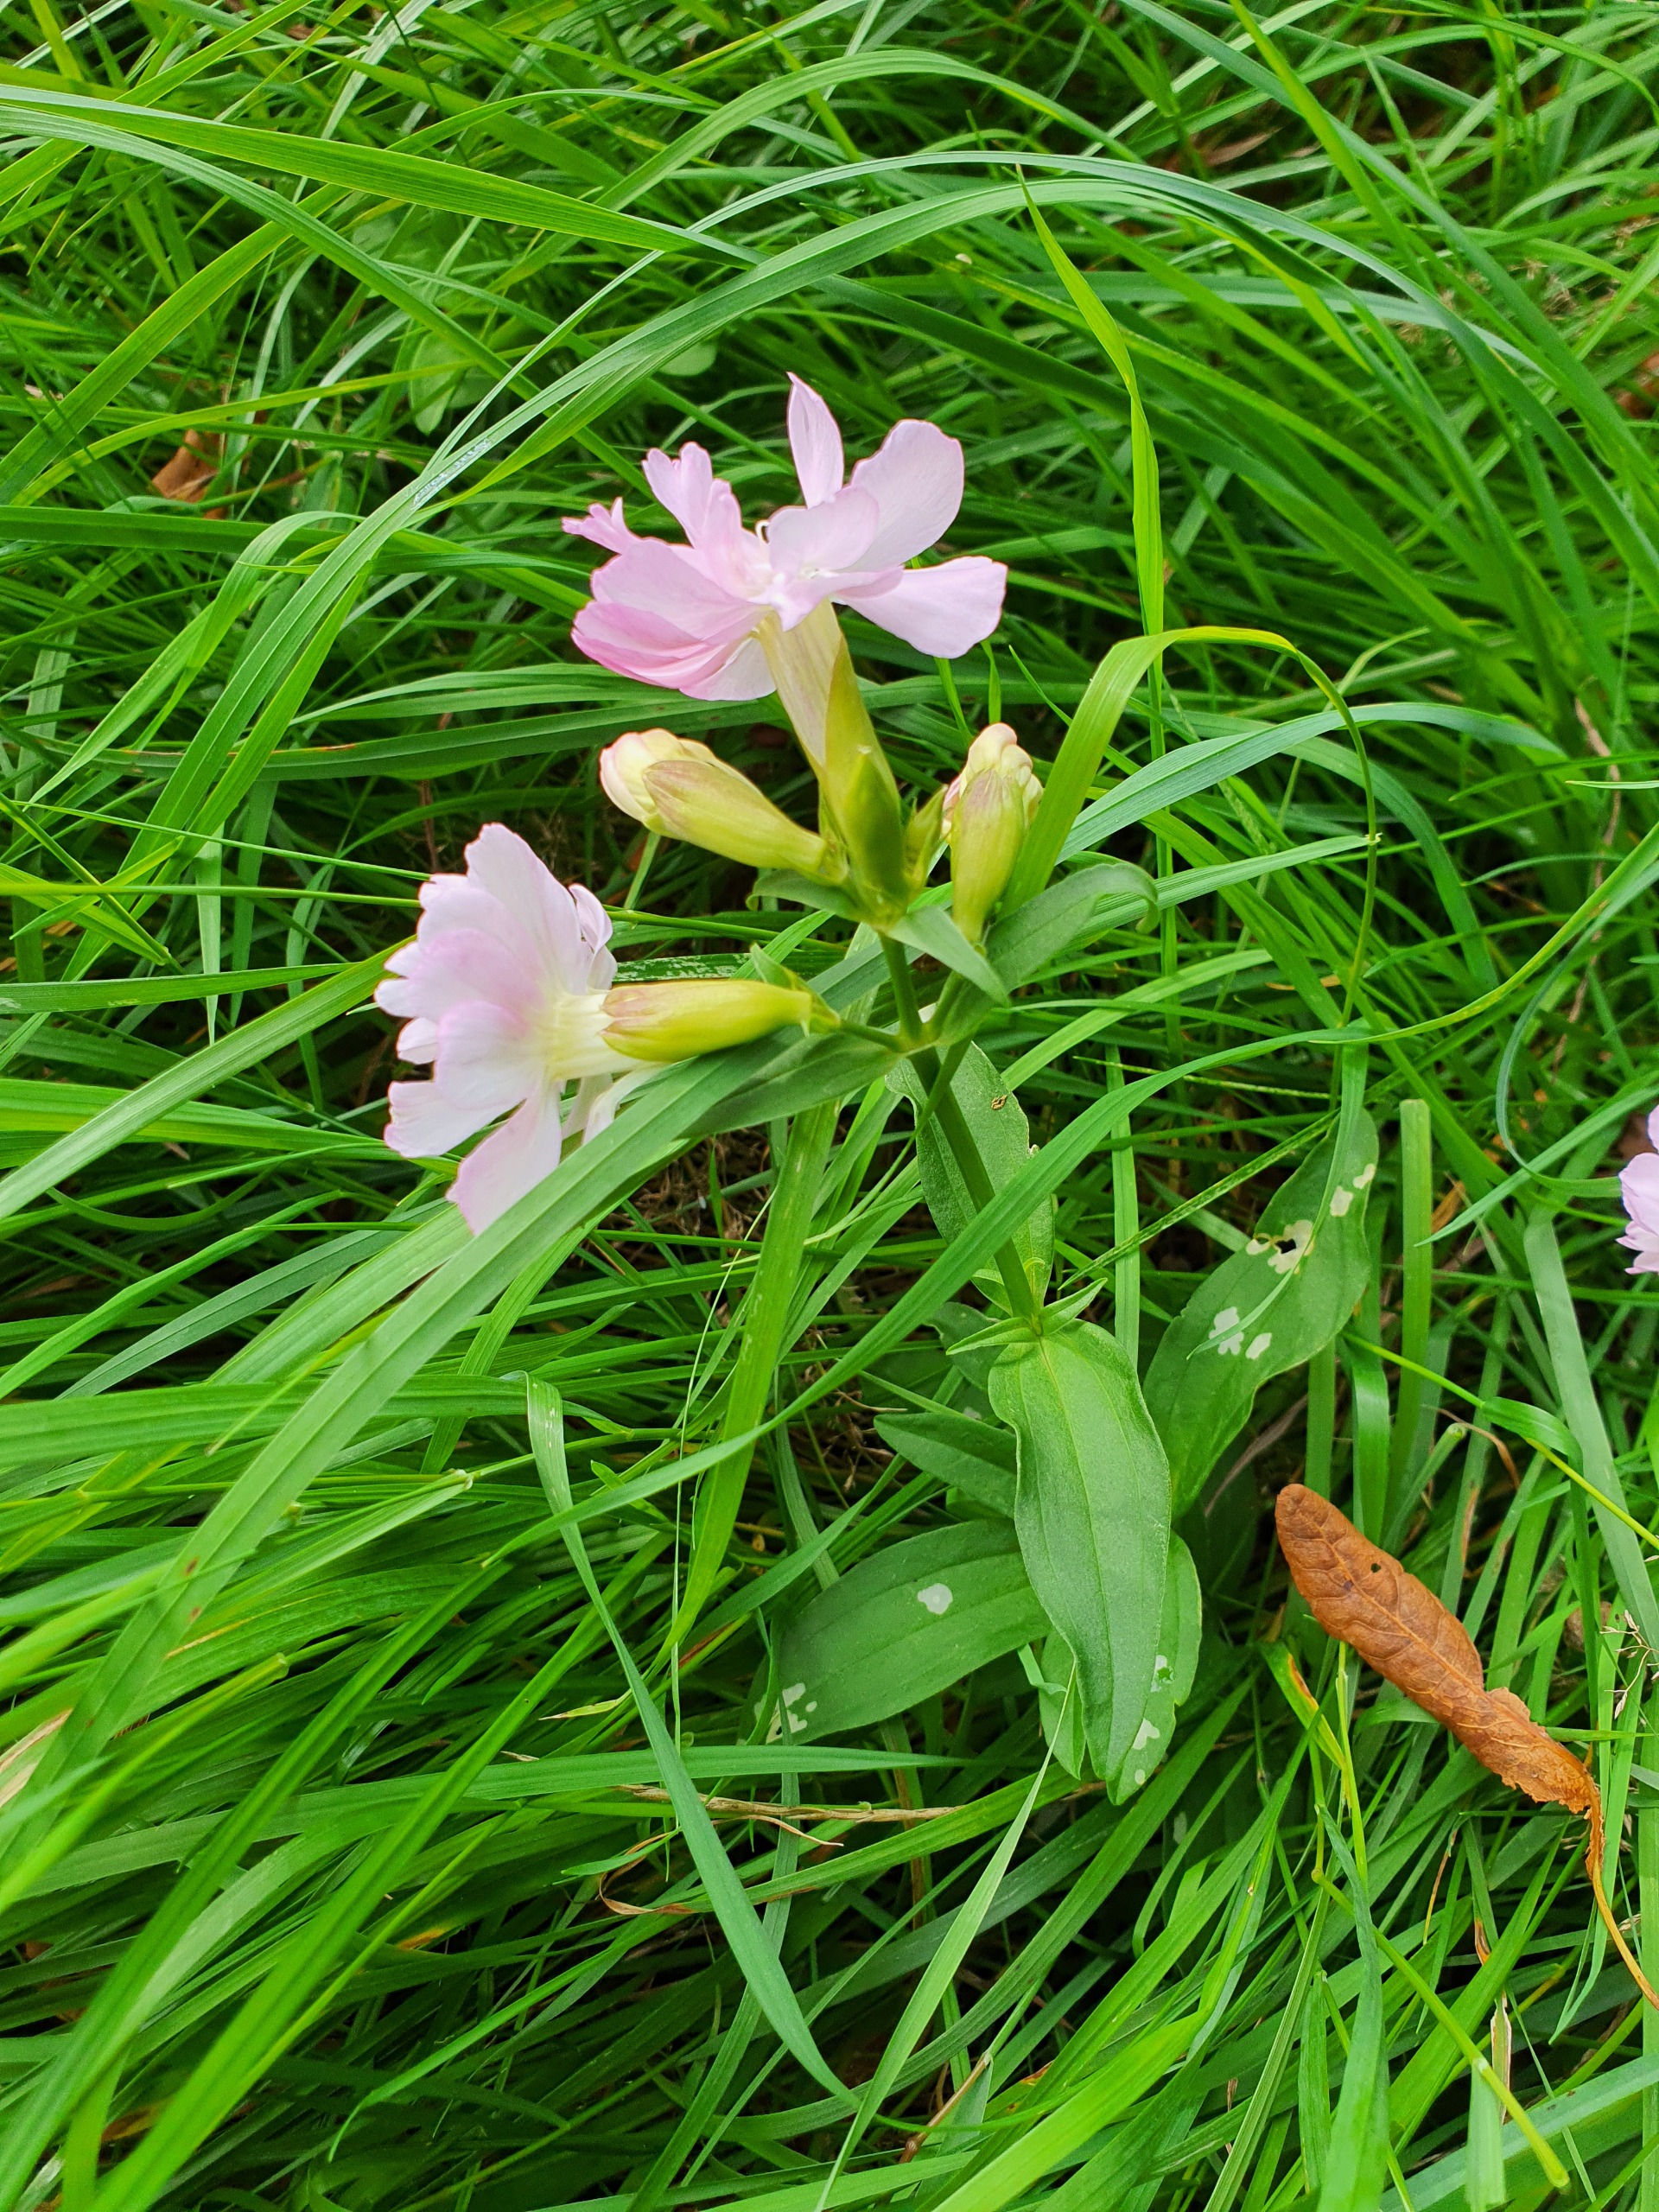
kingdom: Plantae
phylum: Tracheophyta
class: Magnoliopsida
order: Caryophyllales
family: Caryophyllaceae
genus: Saponaria
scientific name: Saponaria officinalis
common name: Sæbeurt
